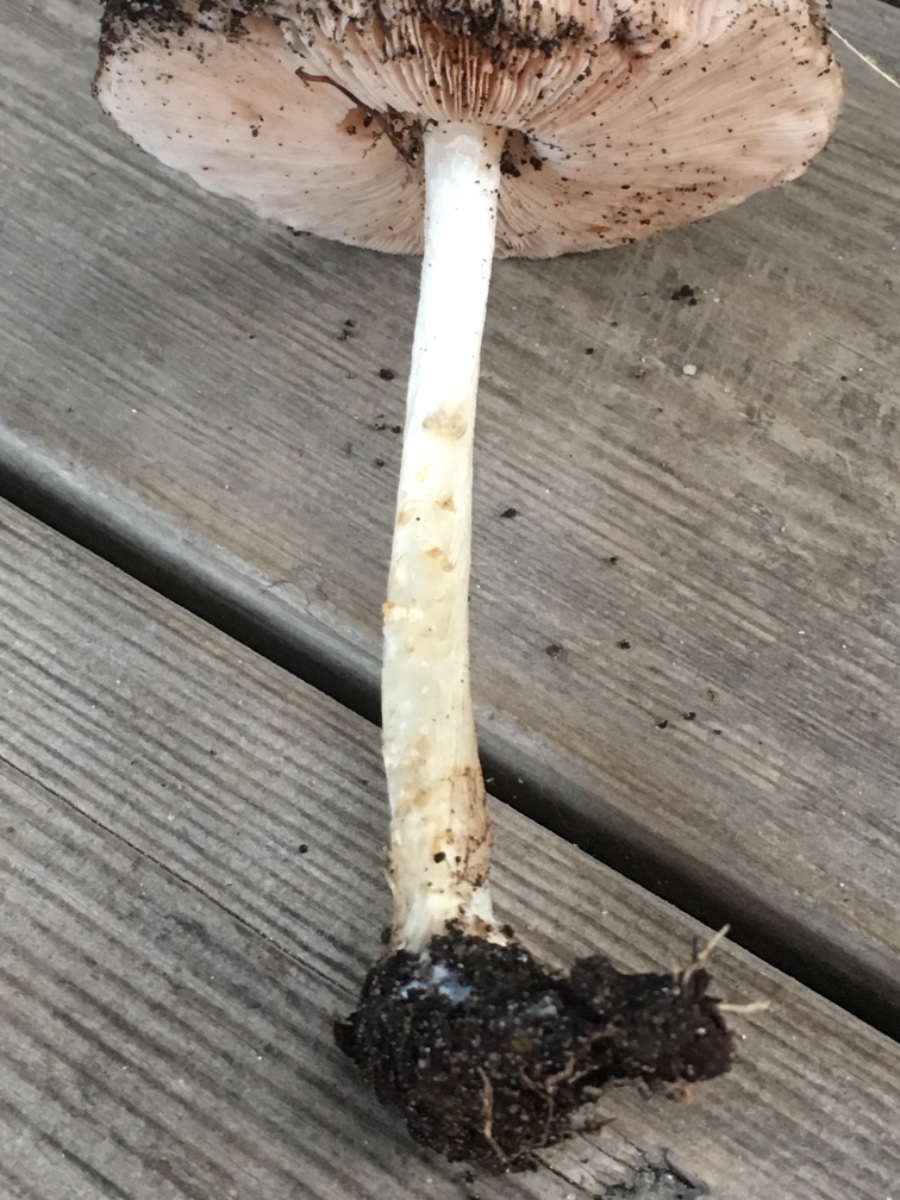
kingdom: Fungi
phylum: Basidiomycota
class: Agaricomycetes
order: Agaricales
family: Pluteaceae
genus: Pluteus
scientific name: Pluteus cervinus
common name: sodfarvet skærmhat
